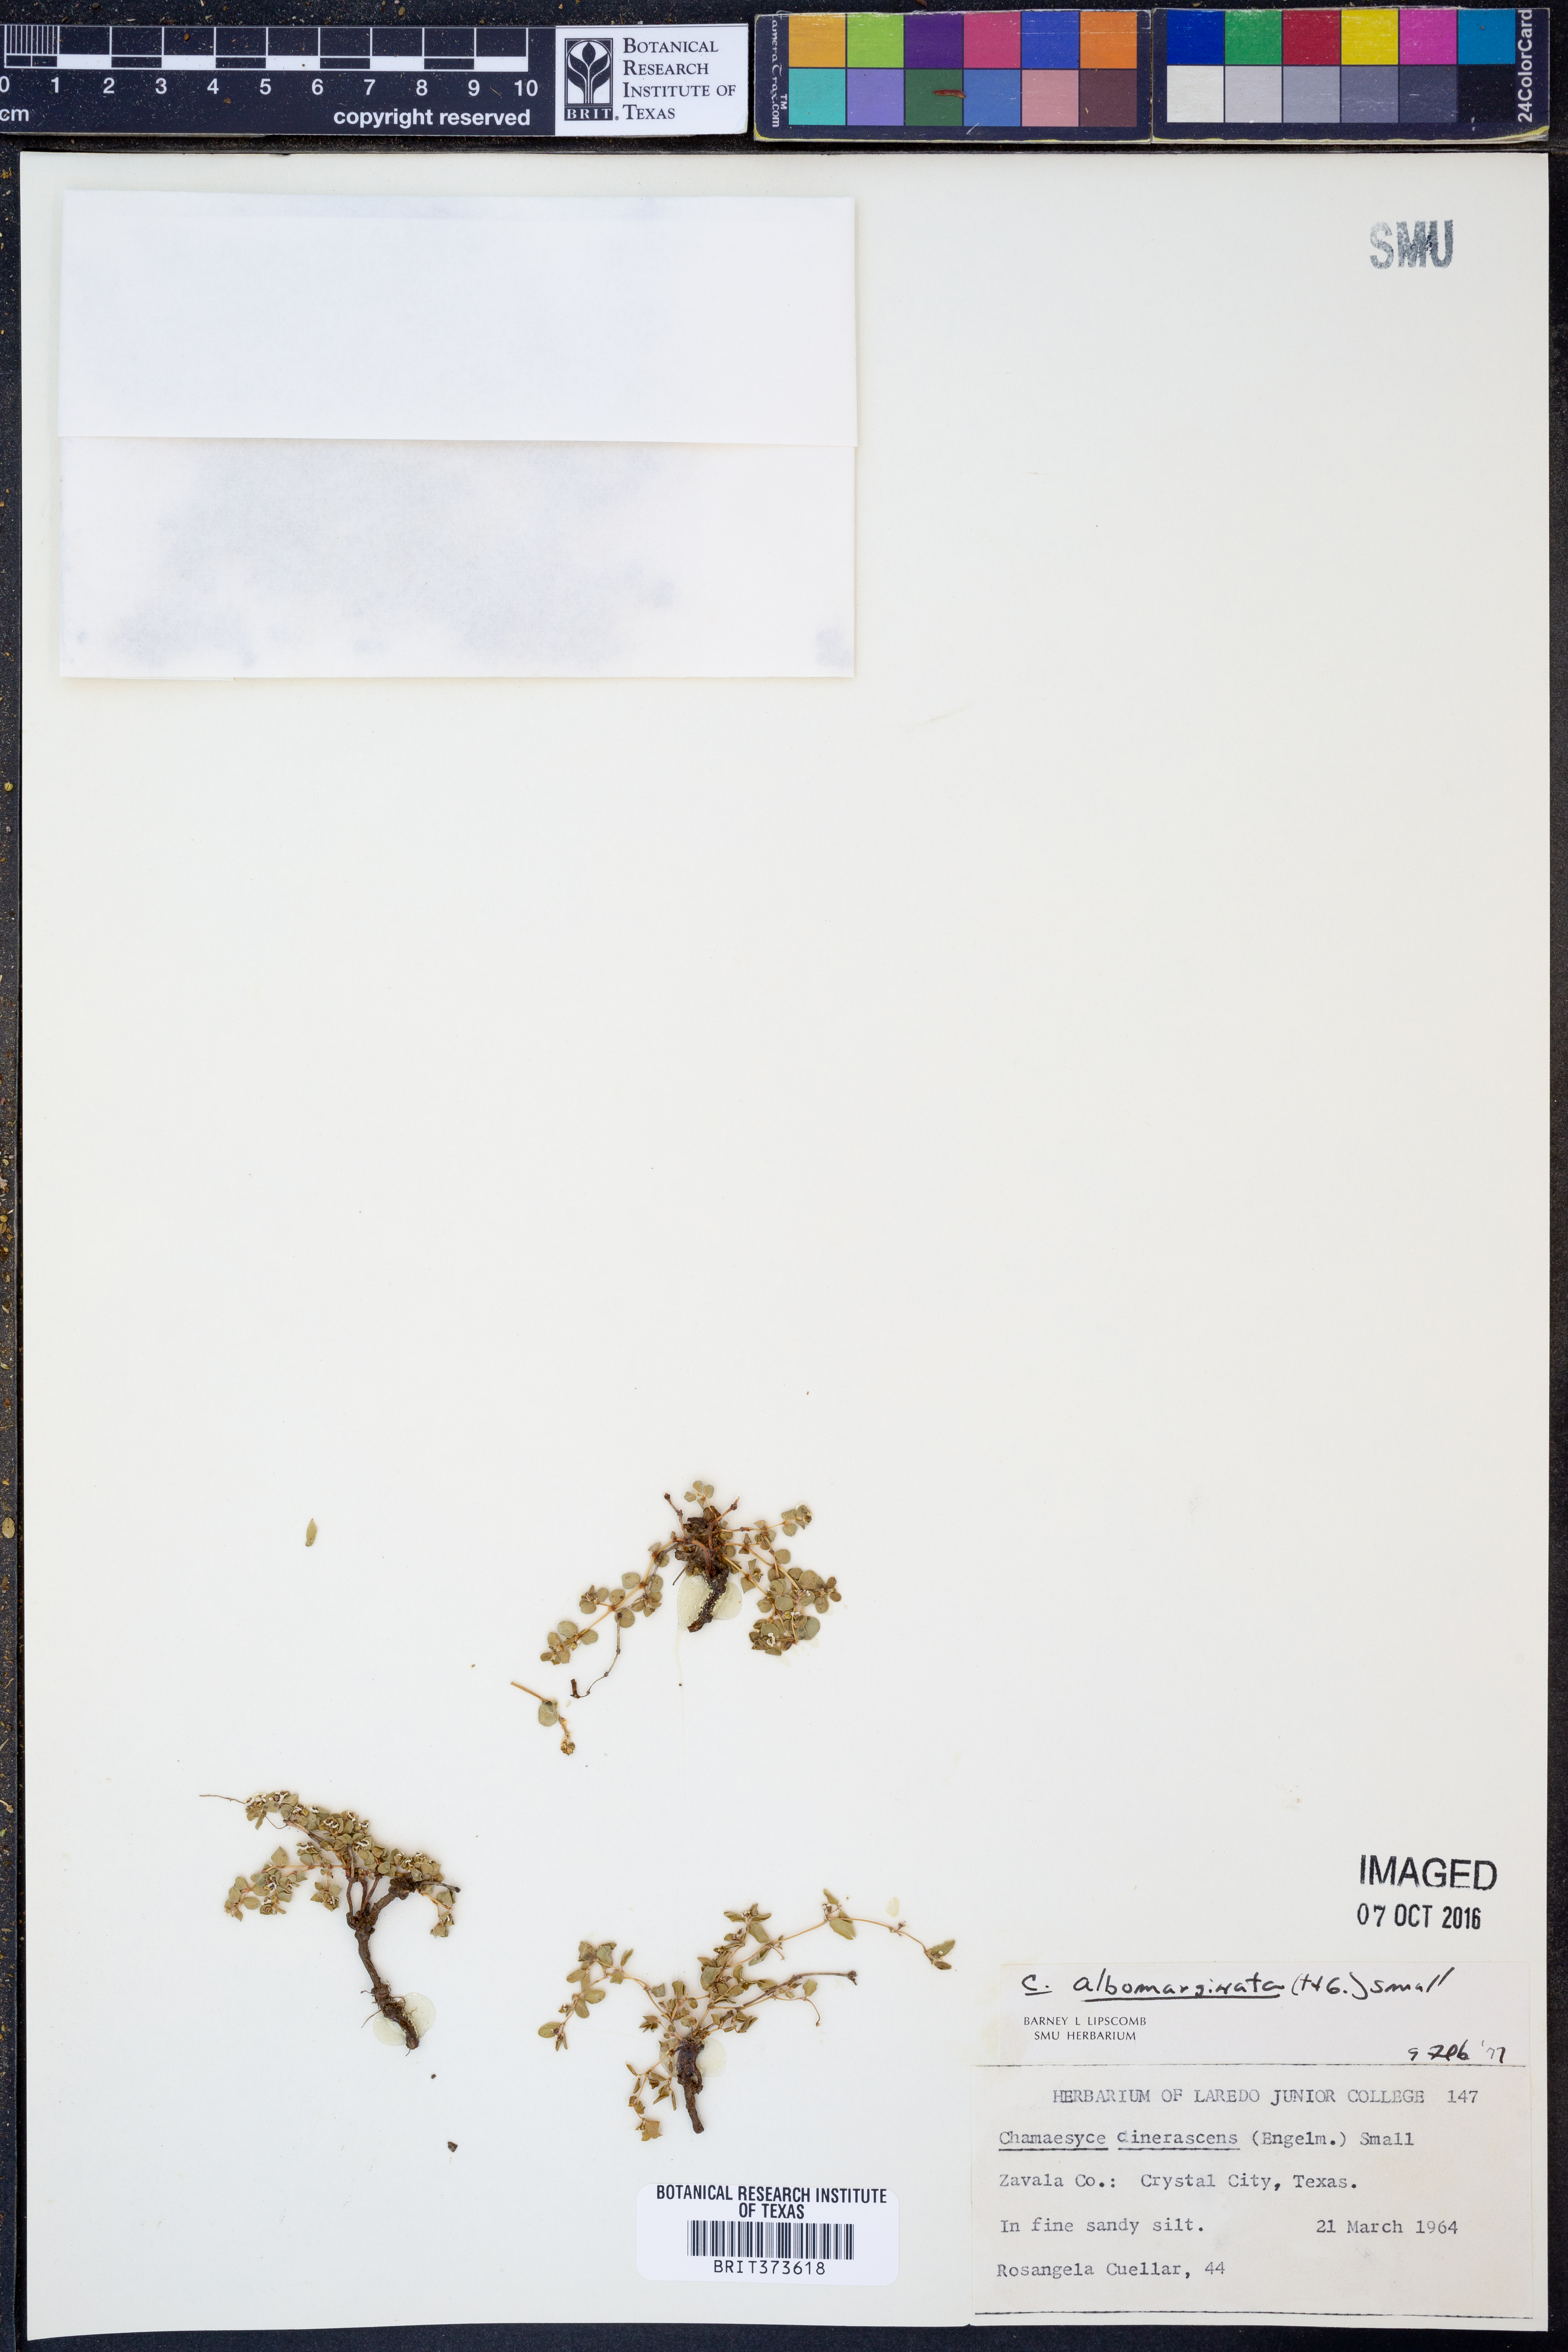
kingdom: Plantae
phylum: Tracheophyta
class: Magnoliopsida
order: Malpighiales
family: Euphorbiaceae
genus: Euphorbia
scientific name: Euphorbia albomarginata
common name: Whitemargin sandmat
